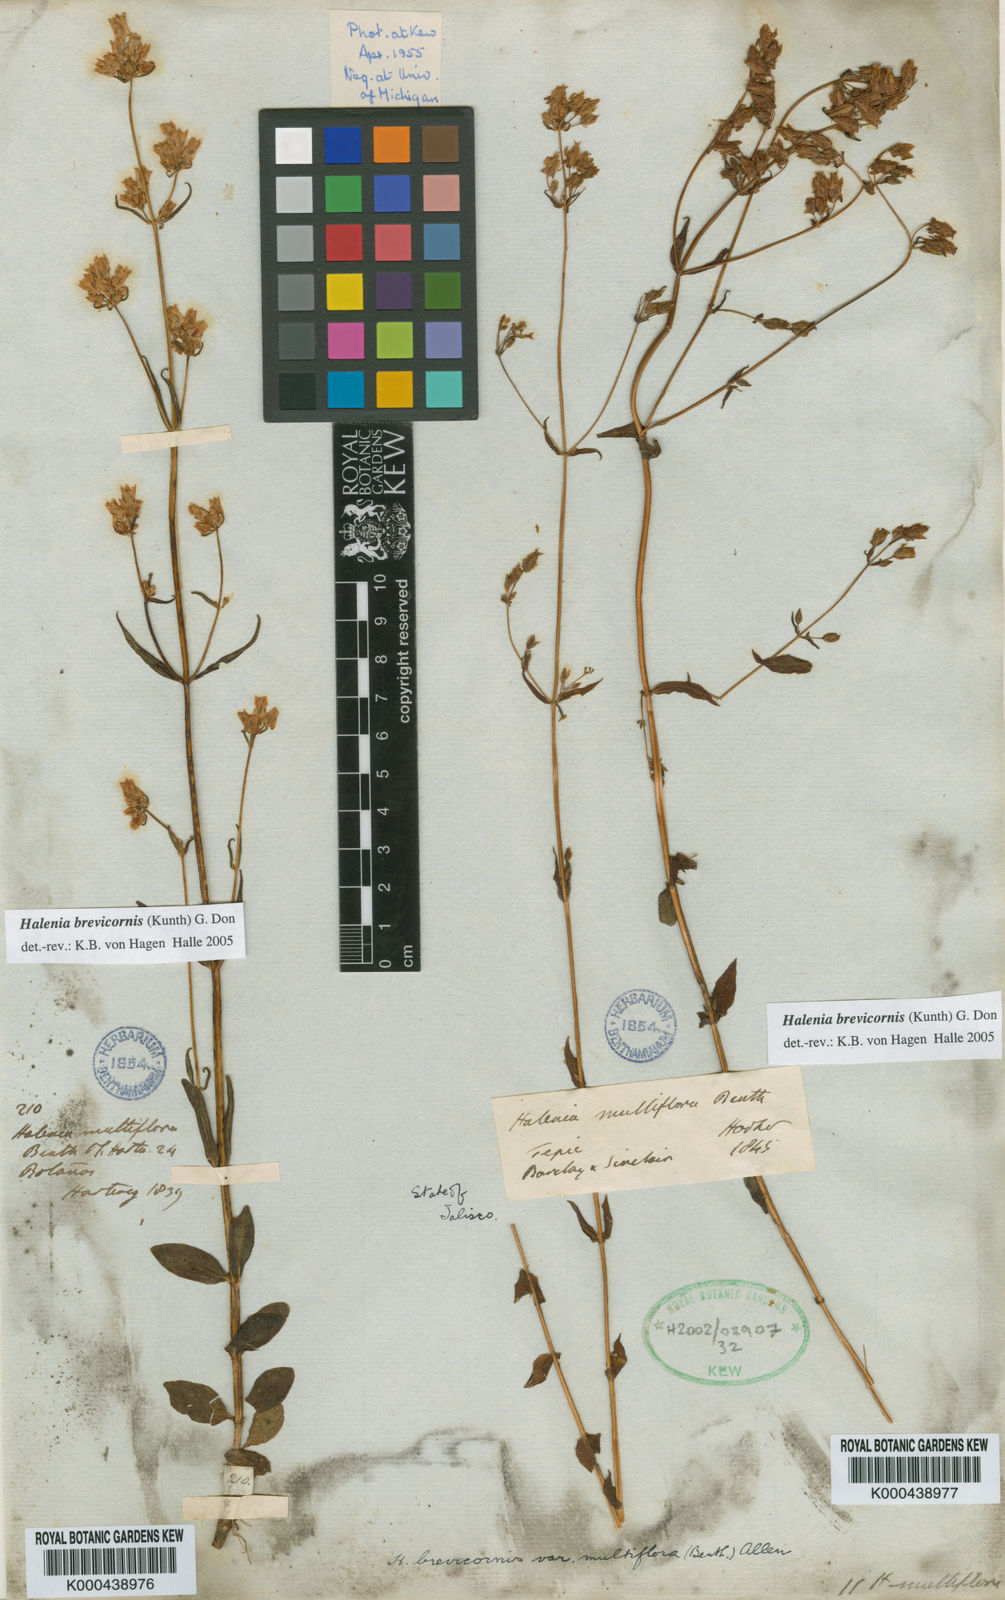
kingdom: Plantae
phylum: Tracheophyta
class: Magnoliopsida
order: Gentianales
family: Gentianaceae
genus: Halenia
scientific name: Halenia brevicornis
